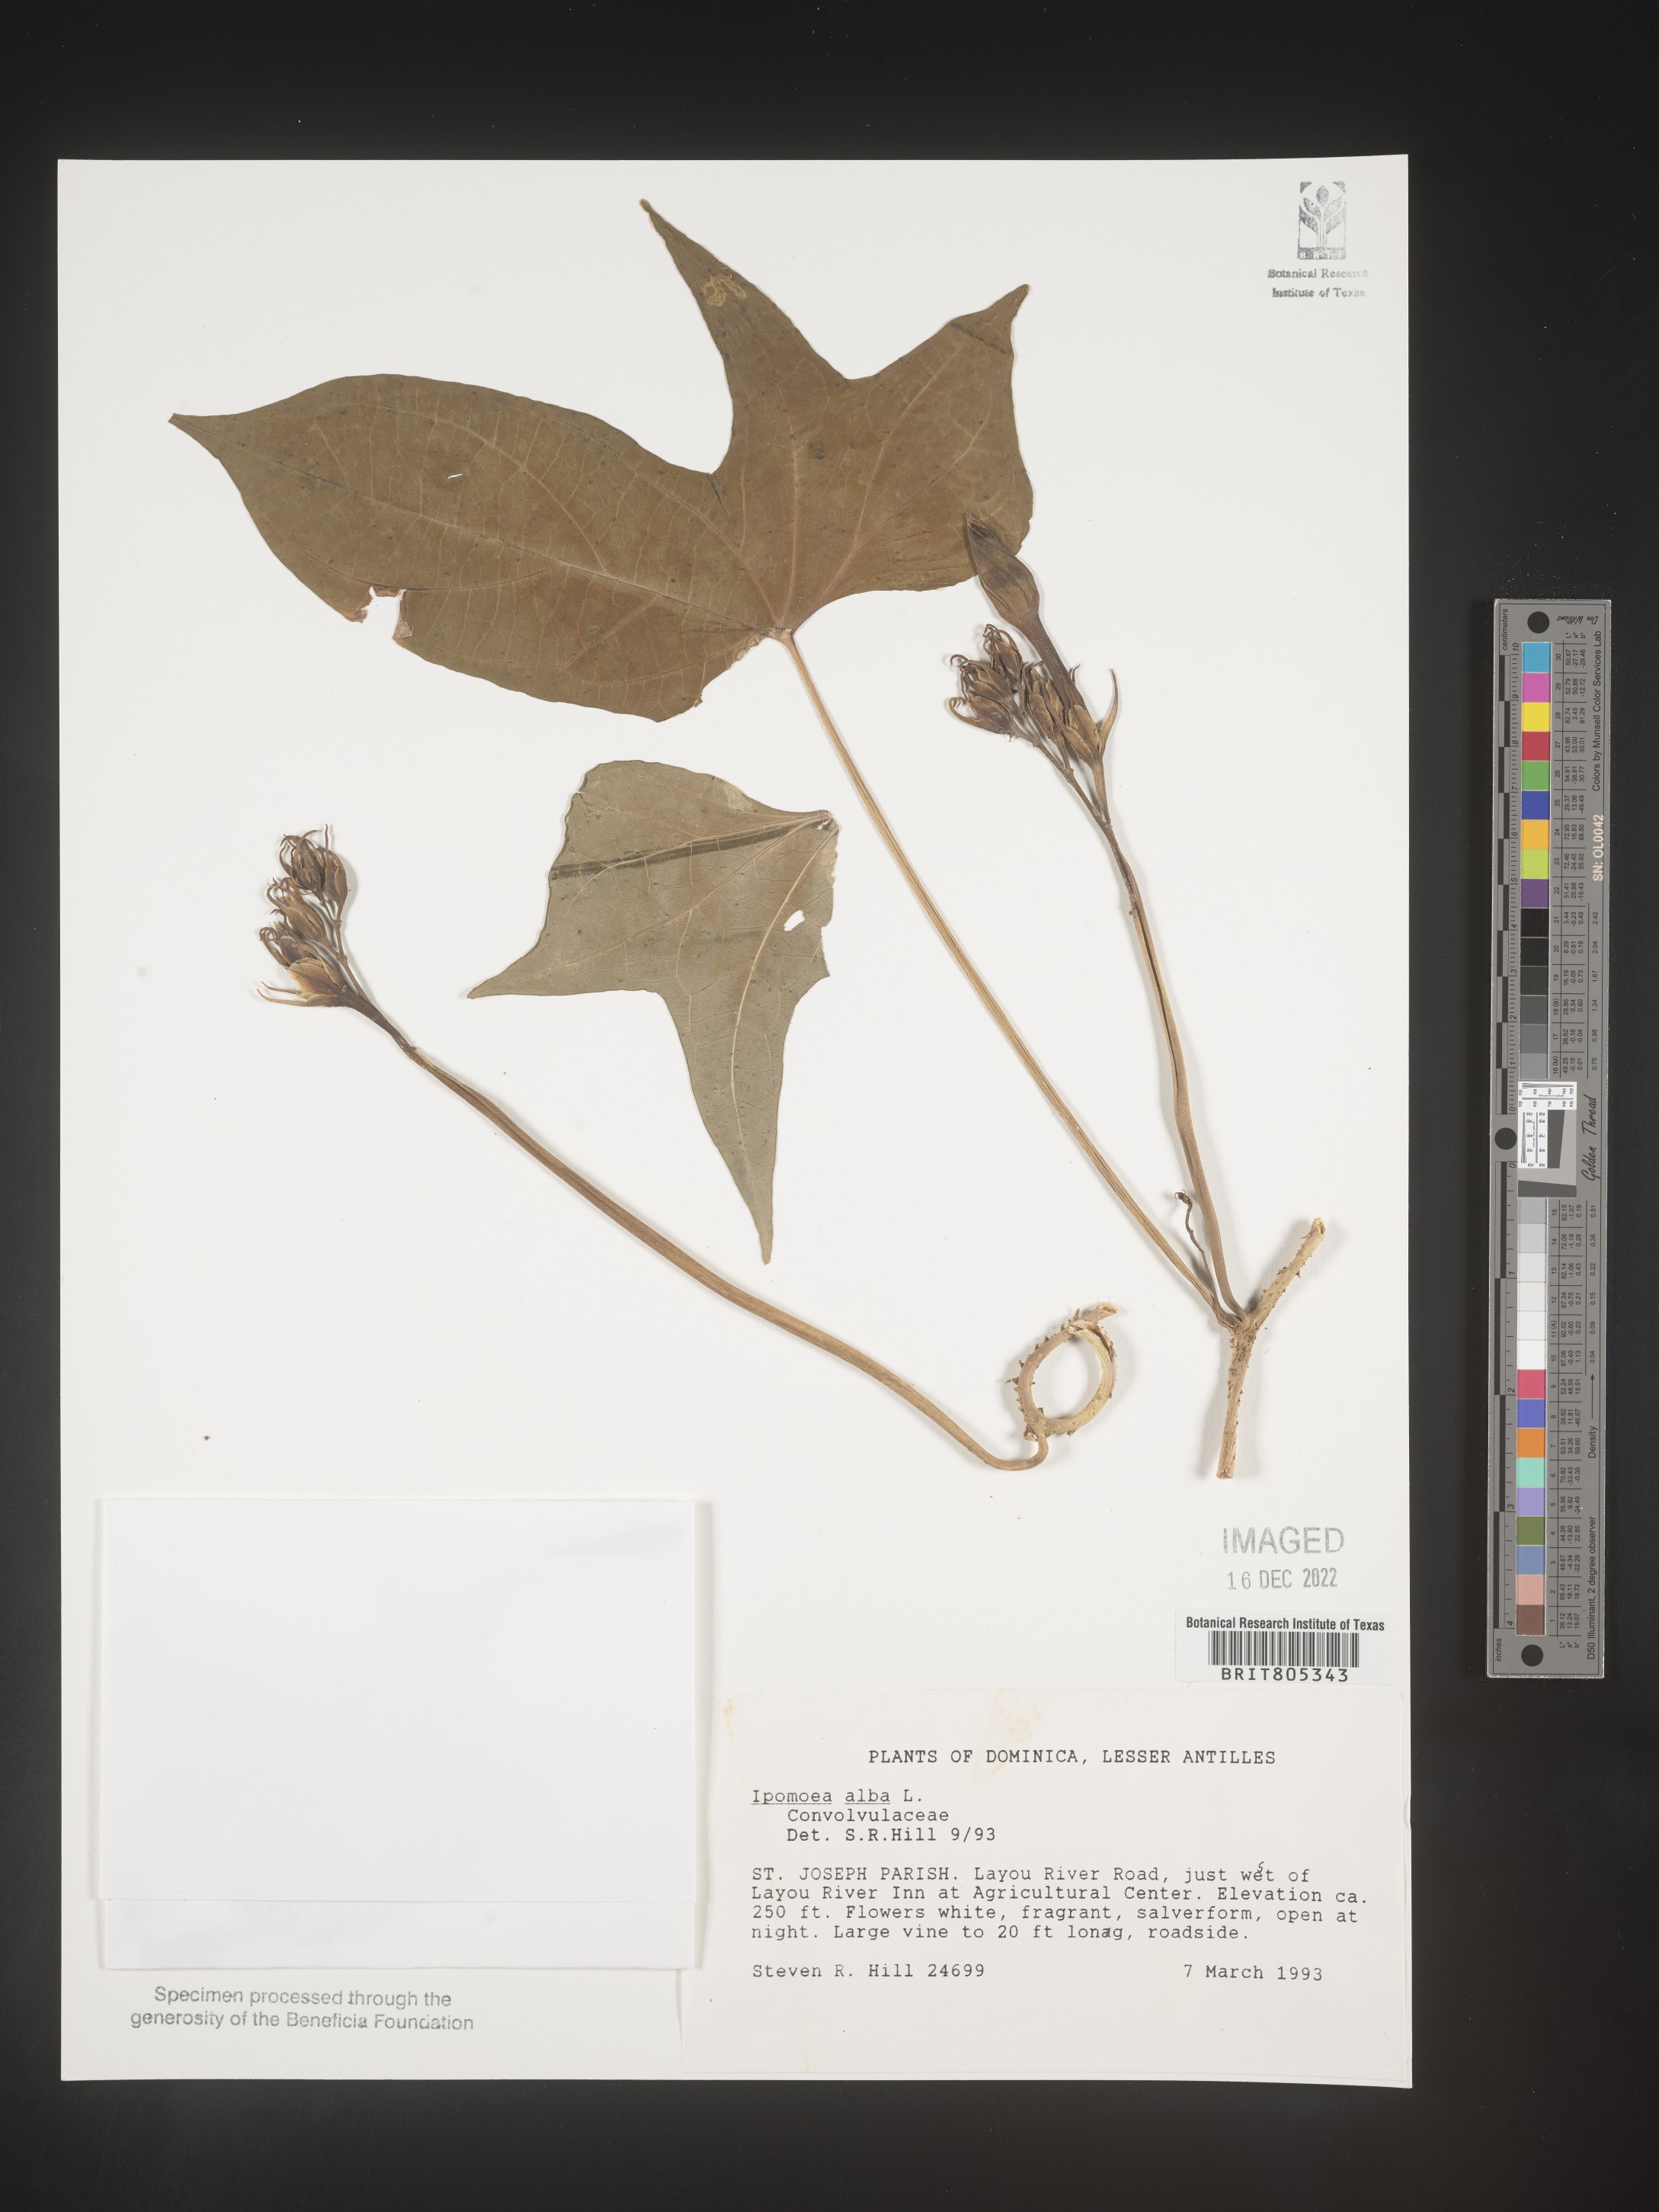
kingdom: Plantae
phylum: Tracheophyta
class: Magnoliopsida
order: Solanales
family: Convolvulaceae
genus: Ipomoea
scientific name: Ipomoea
